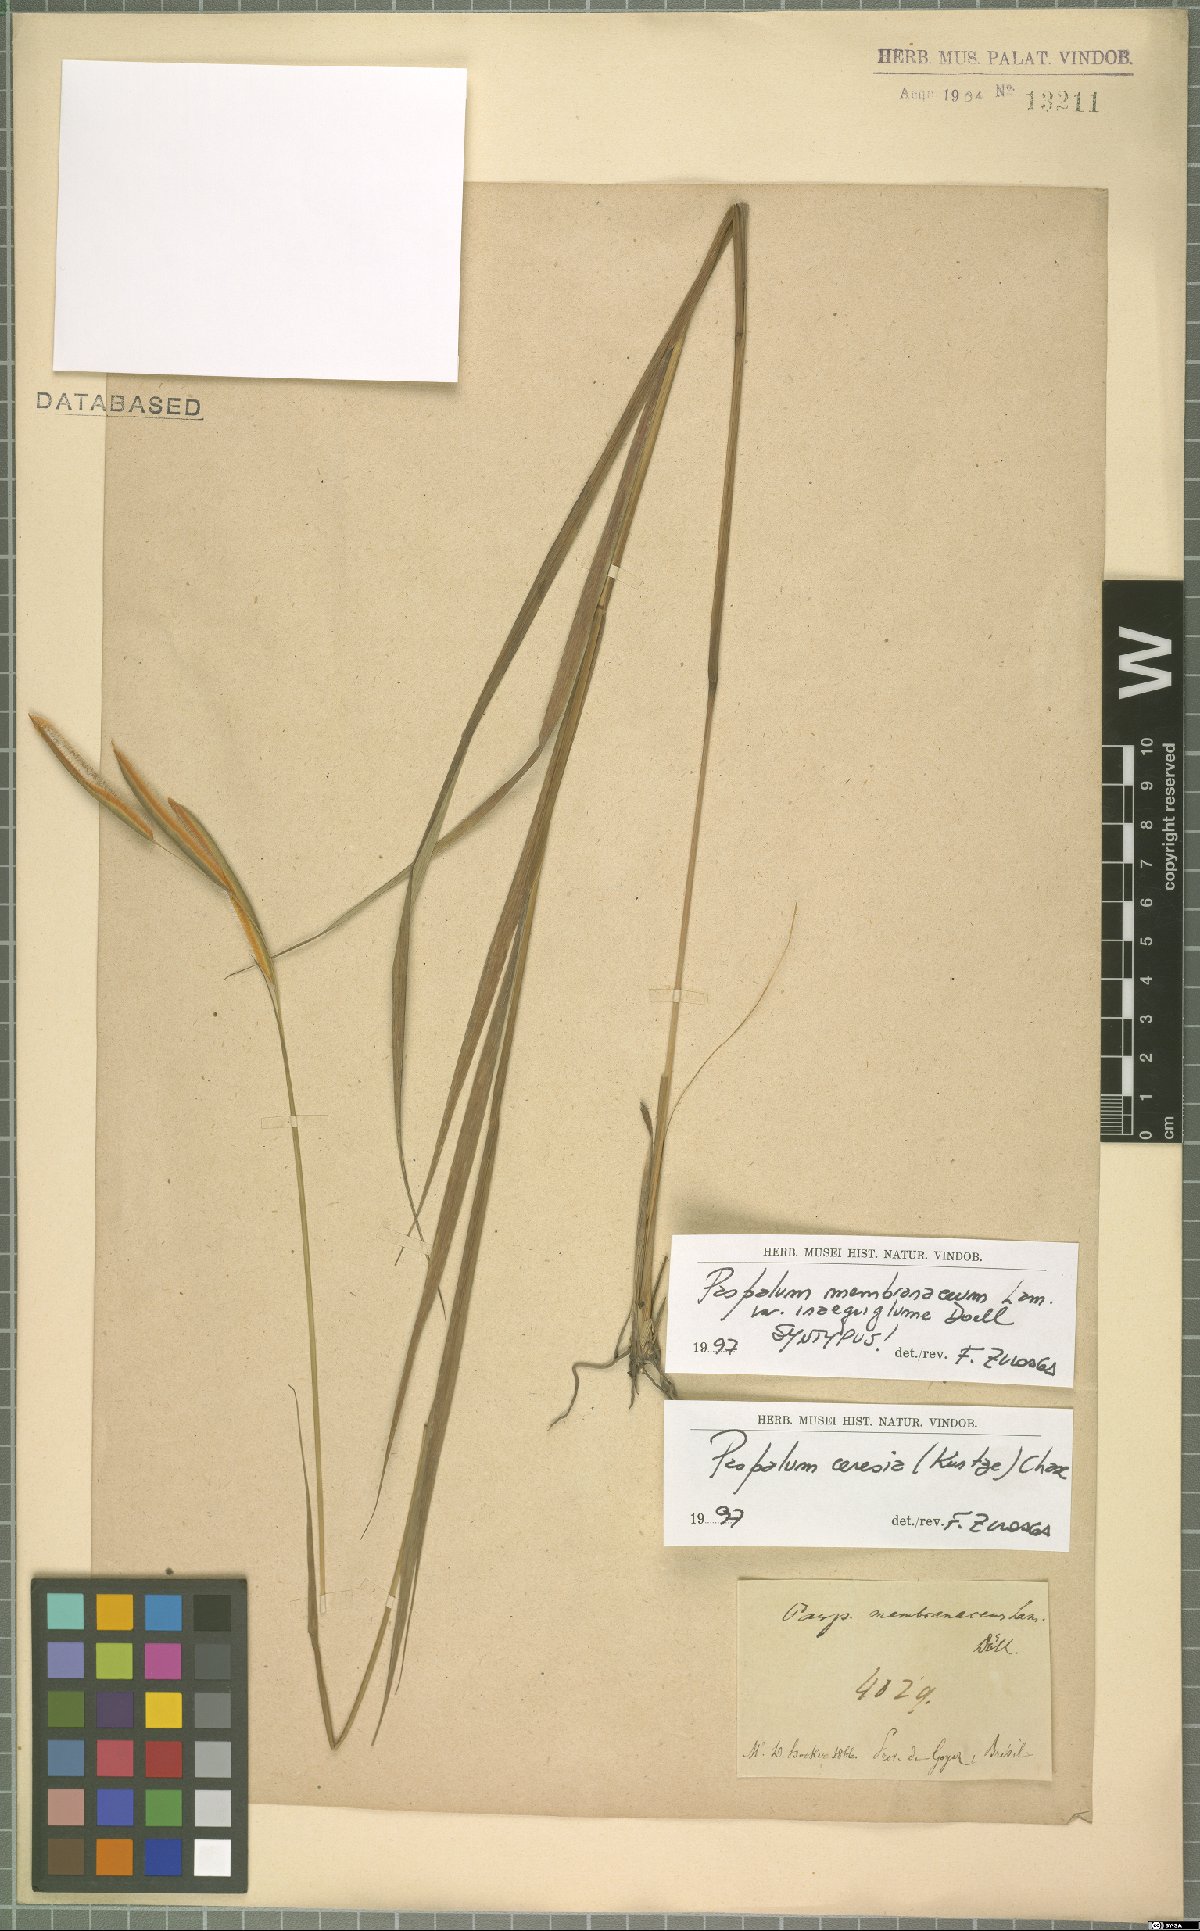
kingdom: Plantae
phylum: Tracheophyta
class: Liliopsida
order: Poales
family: Poaceae
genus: Paspalum
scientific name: Paspalum ceresia
